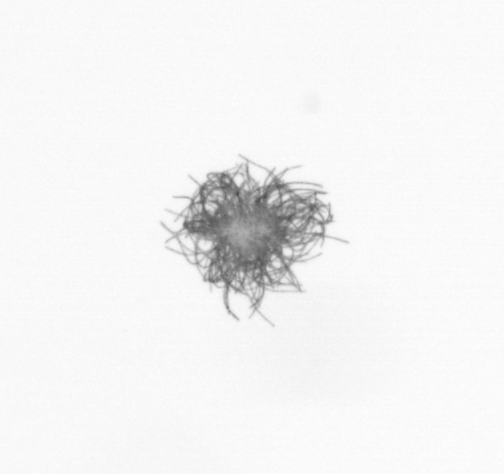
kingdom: Bacteria
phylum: Cyanobacteria
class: Cyanobacteriia
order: Cyanobacteriales
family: Microcoleaceae
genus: Trichodesmium
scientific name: Trichodesmium
